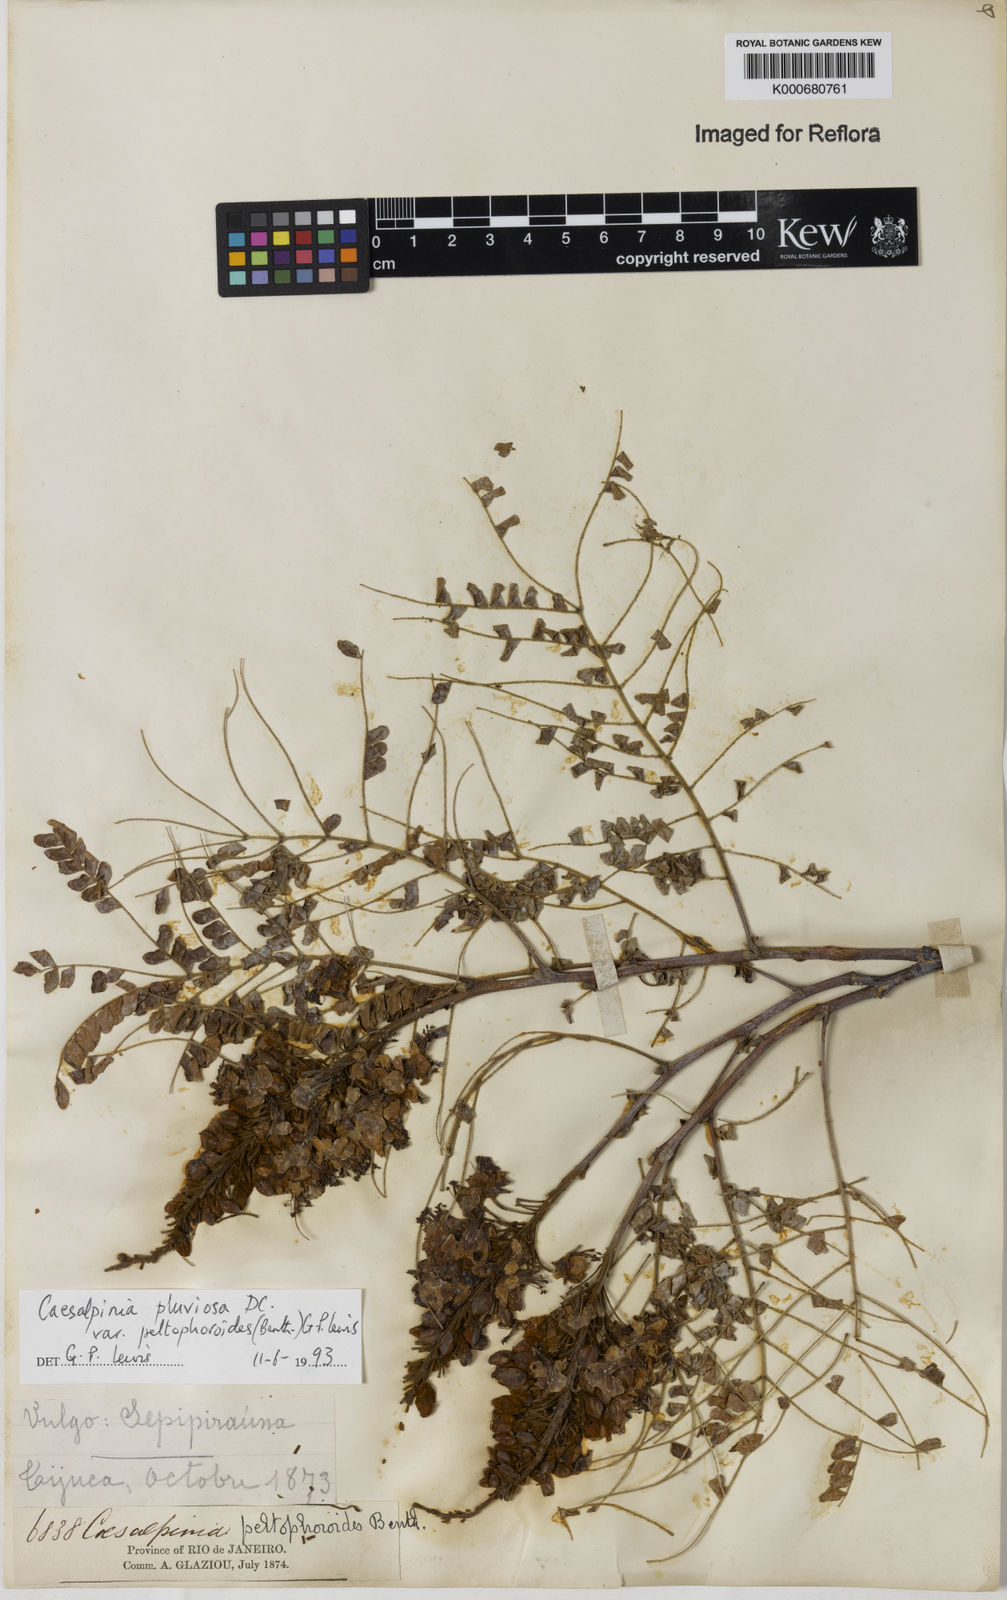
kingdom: Plantae
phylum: Tracheophyta
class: Magnoliopsida
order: Fabales
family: Fabaceae
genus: Cenostigma
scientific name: Cenostigma pluviosum
